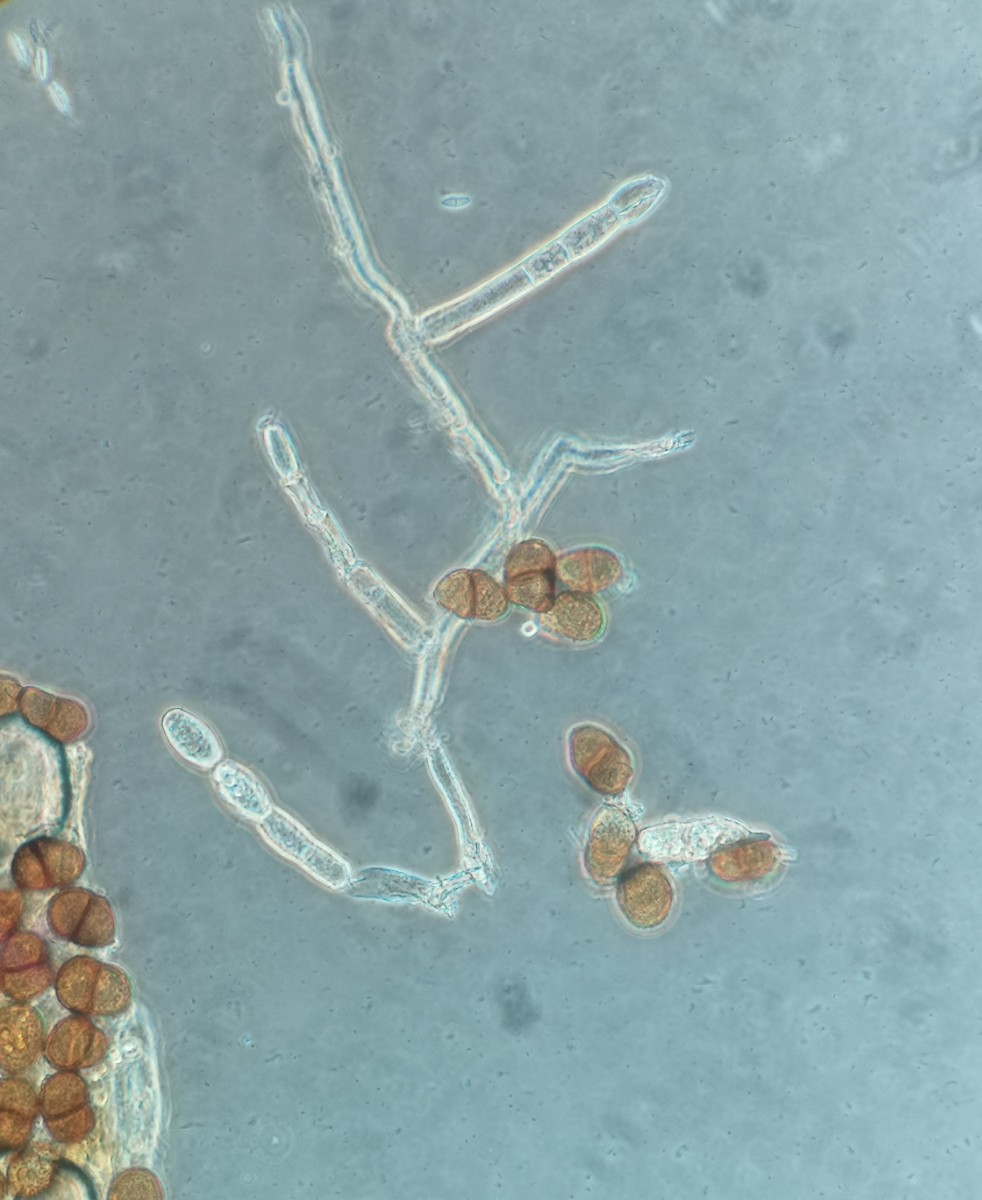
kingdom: Fungi
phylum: Ascomycota
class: Leotiomycetes
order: Helotiales
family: Erysiphaceae
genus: Golovinomyces
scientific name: Golovinomyces cichoracearum
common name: kurvblomst-meldug
